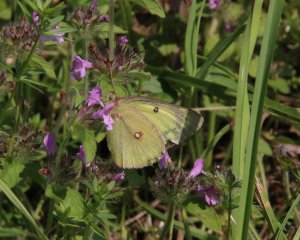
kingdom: Animalia
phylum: Arthropoda
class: Insecta
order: Lepidoptera
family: Pieridae
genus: Colias
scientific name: Colias philodice
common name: Clouded Sulphur
